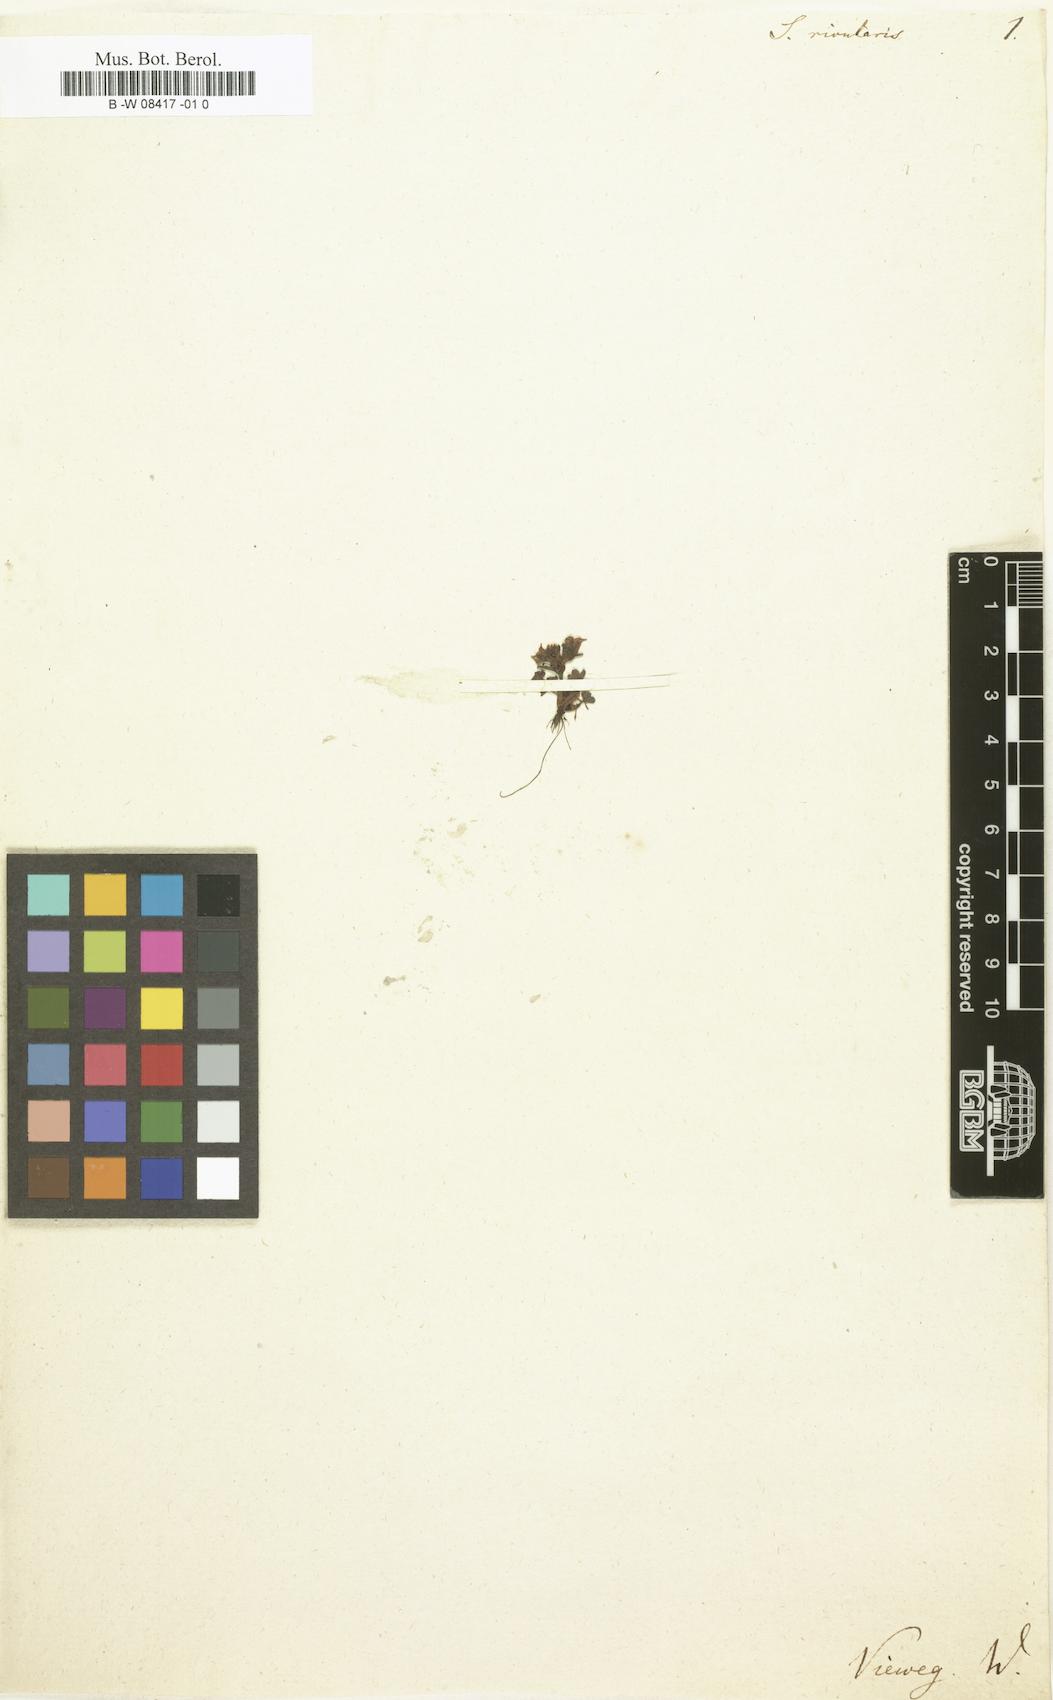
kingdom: Plantae
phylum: Tracheophyta
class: Magnoliopsida
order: Saxifragales
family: Saxifragaceae
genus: Saxifraga
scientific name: Saxifraga rivularis
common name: Highland saxifrage
